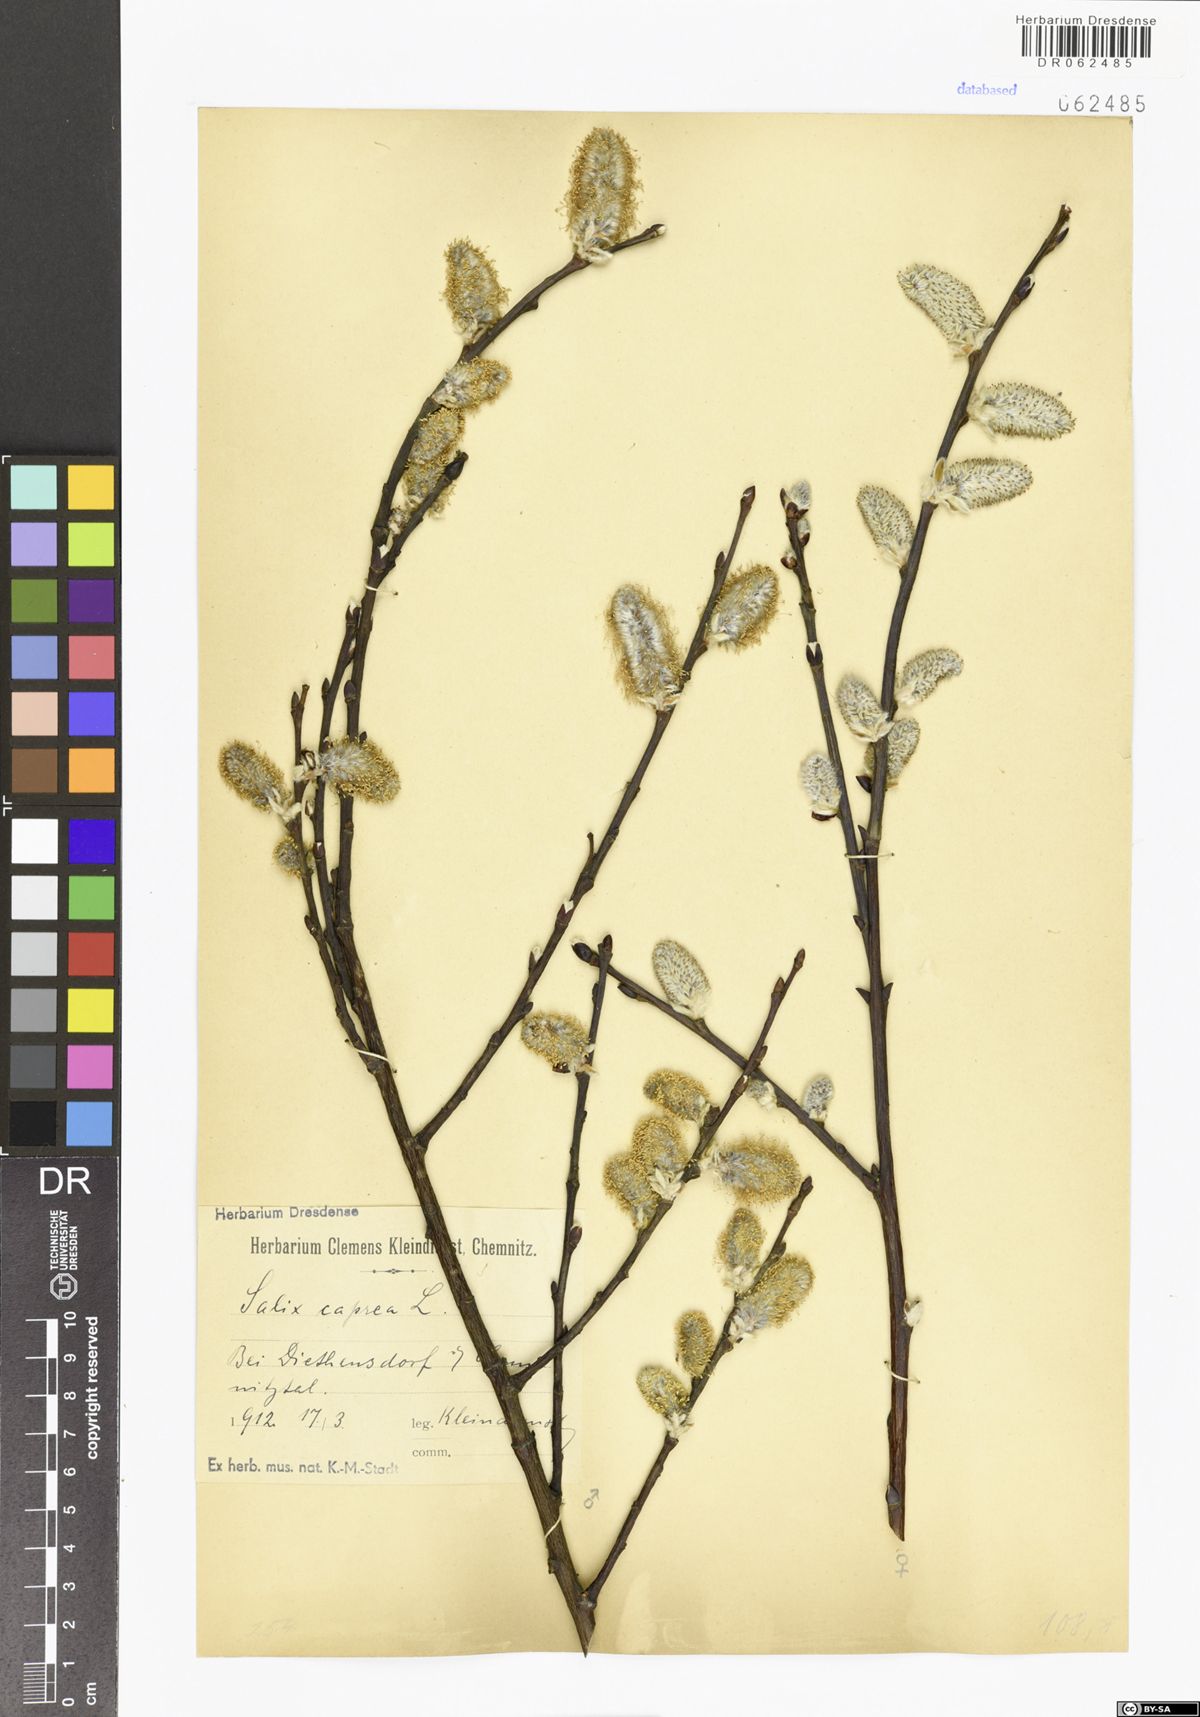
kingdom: Plantae
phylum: Tracheophyta
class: Magnoliopsida
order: Malpighiales
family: Salicaceae
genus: Salix
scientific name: Salix caprea
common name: Goat willow
